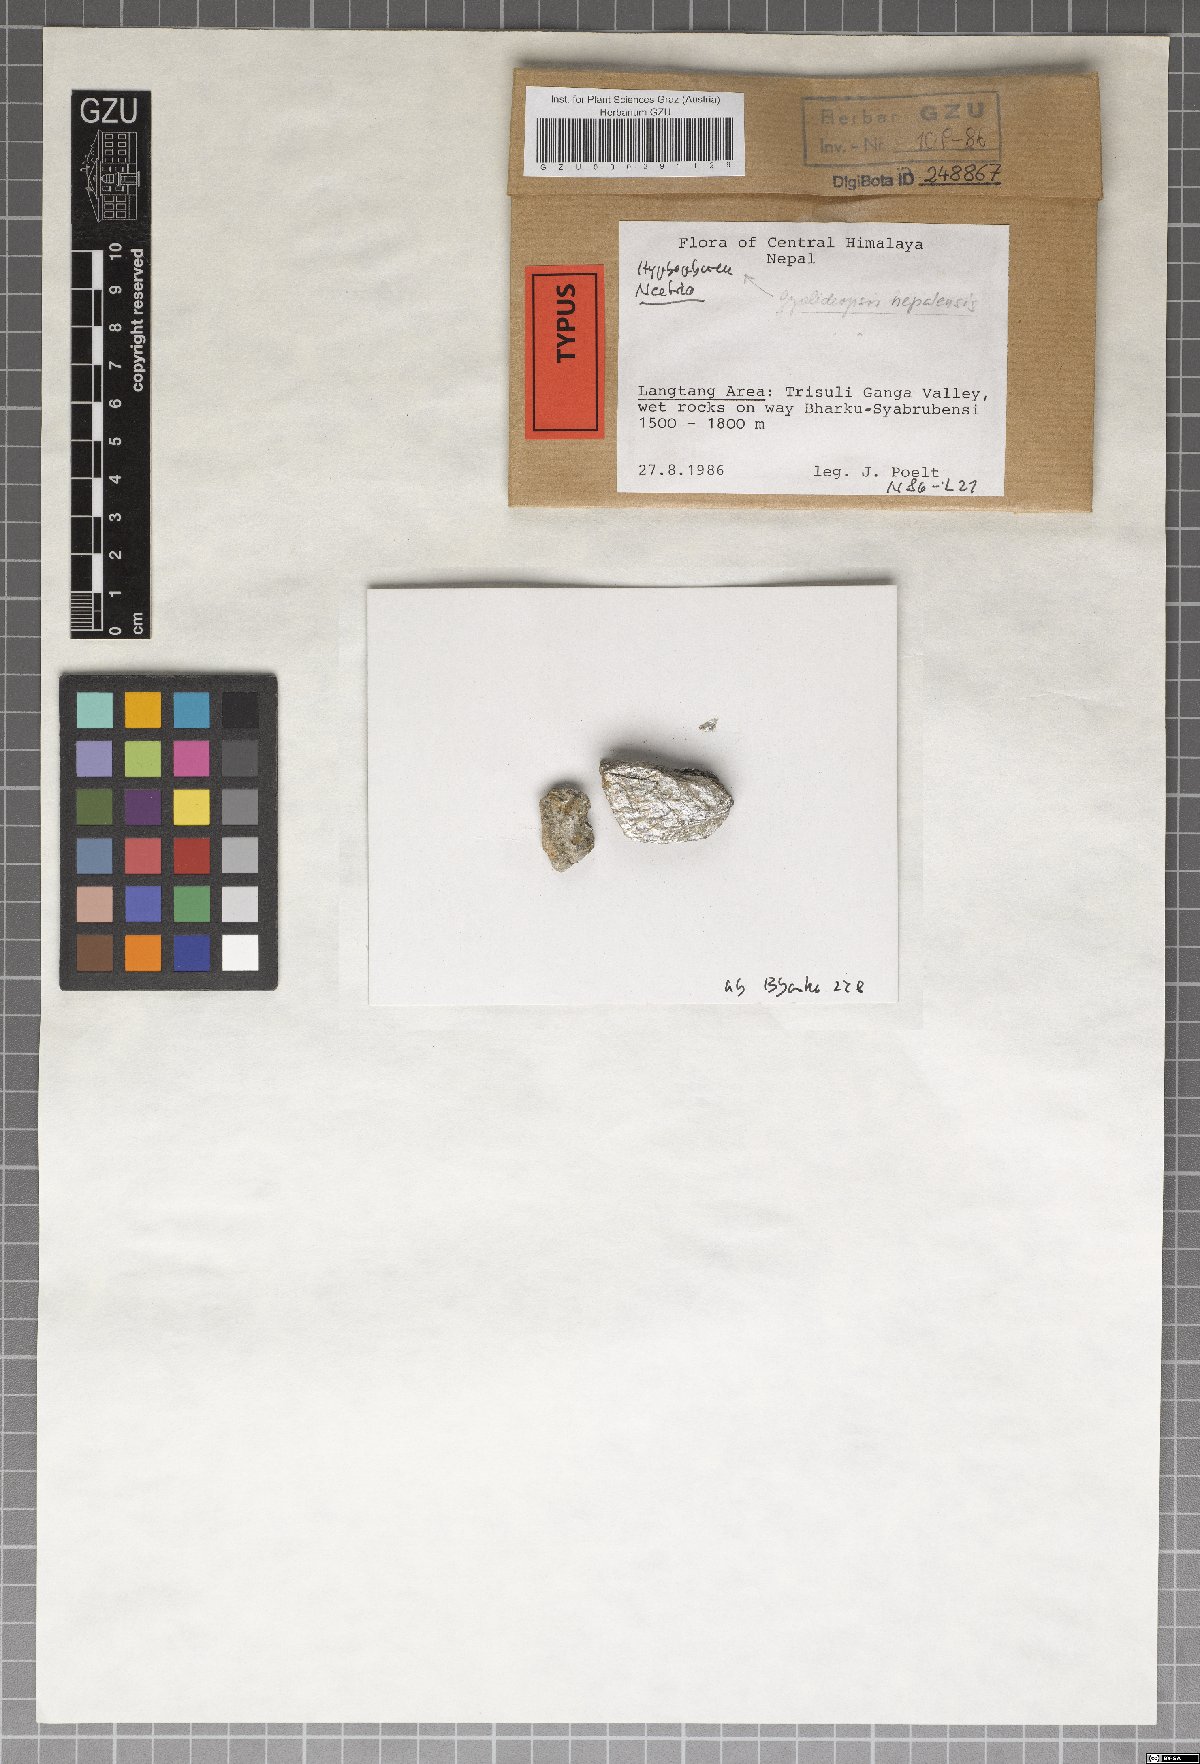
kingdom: Fungi
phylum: Ascomycota
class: Lecanoromycetes
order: Ostropales
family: Gomphillaceae
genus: Gyalideopsis
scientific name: Gyalideopsis nepalensis
